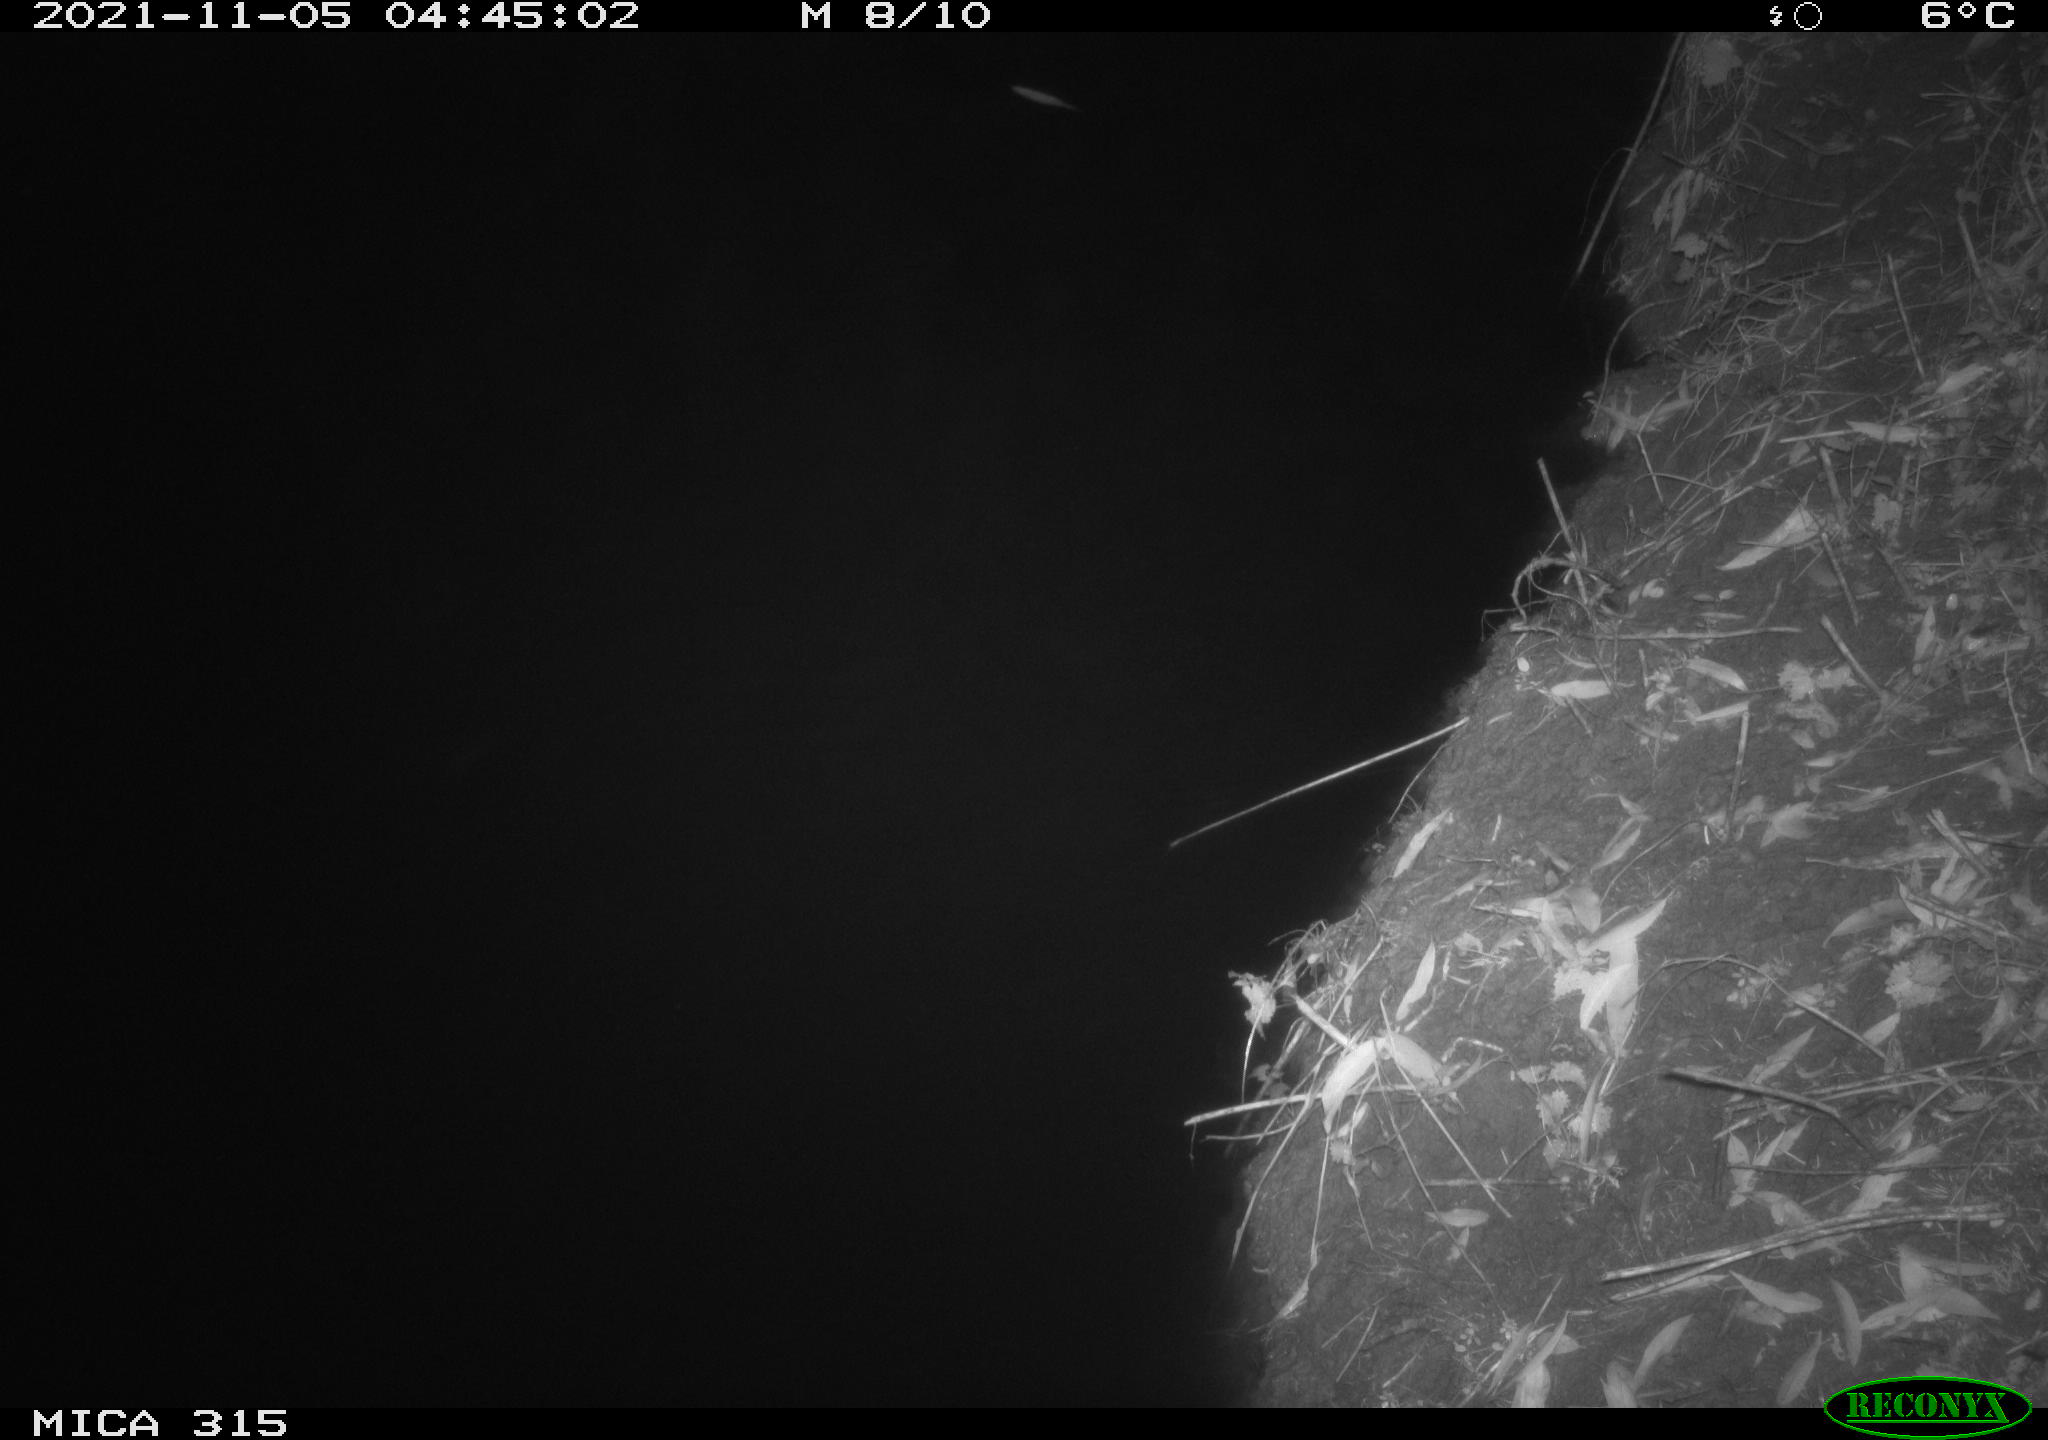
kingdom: Animalia
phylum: Chordata
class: Mammalia
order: Rodentia
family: Muridae
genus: Rattus
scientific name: Rattus norvegicus
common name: Brown rat
